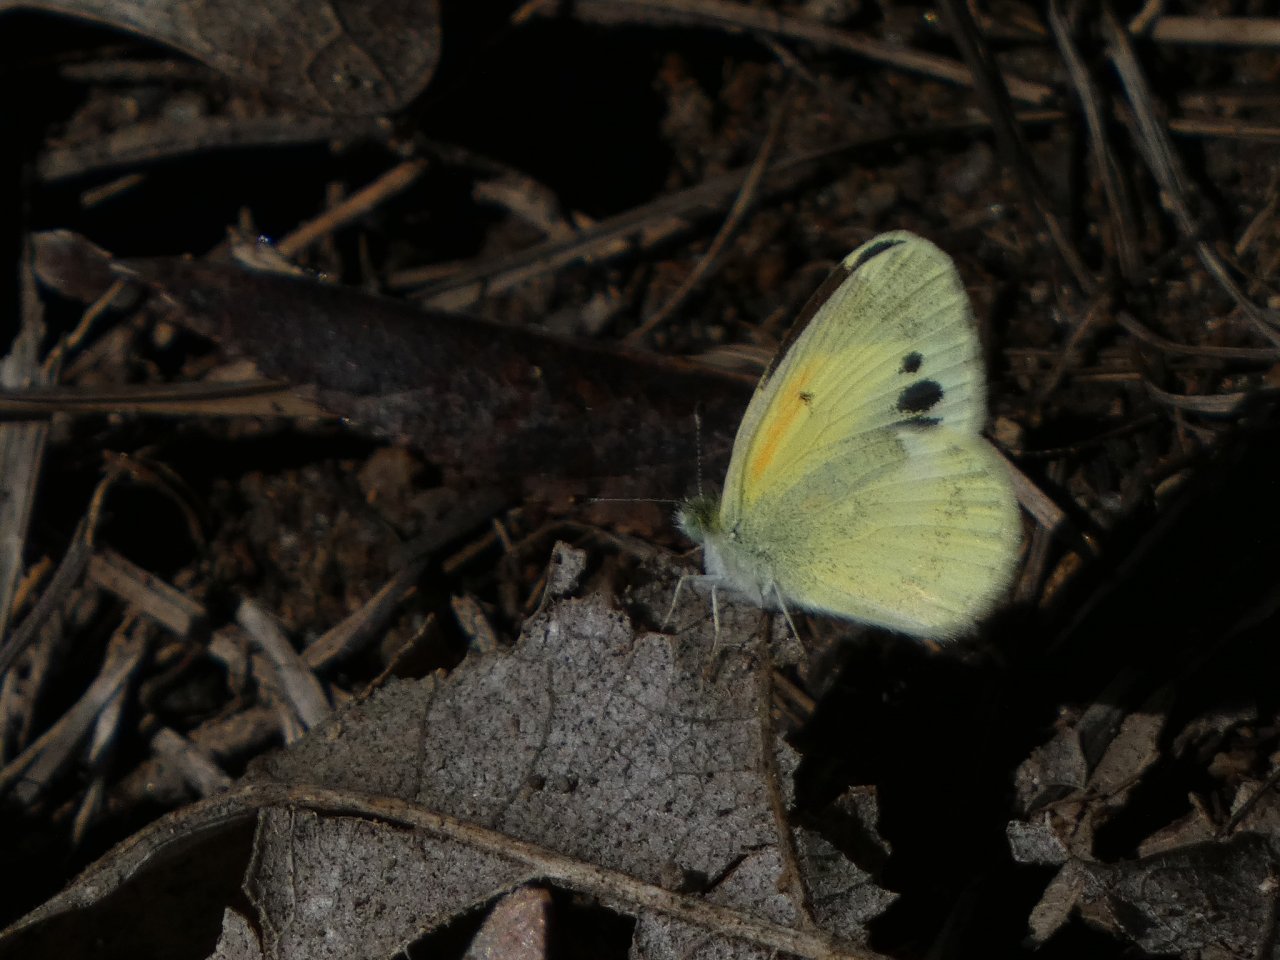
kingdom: Animalia
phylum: Arthropoda
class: Insecta
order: Lepidoptera
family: Pieridae
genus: Nathalis
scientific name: Nathalis iole
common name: Dainty Sulphur
